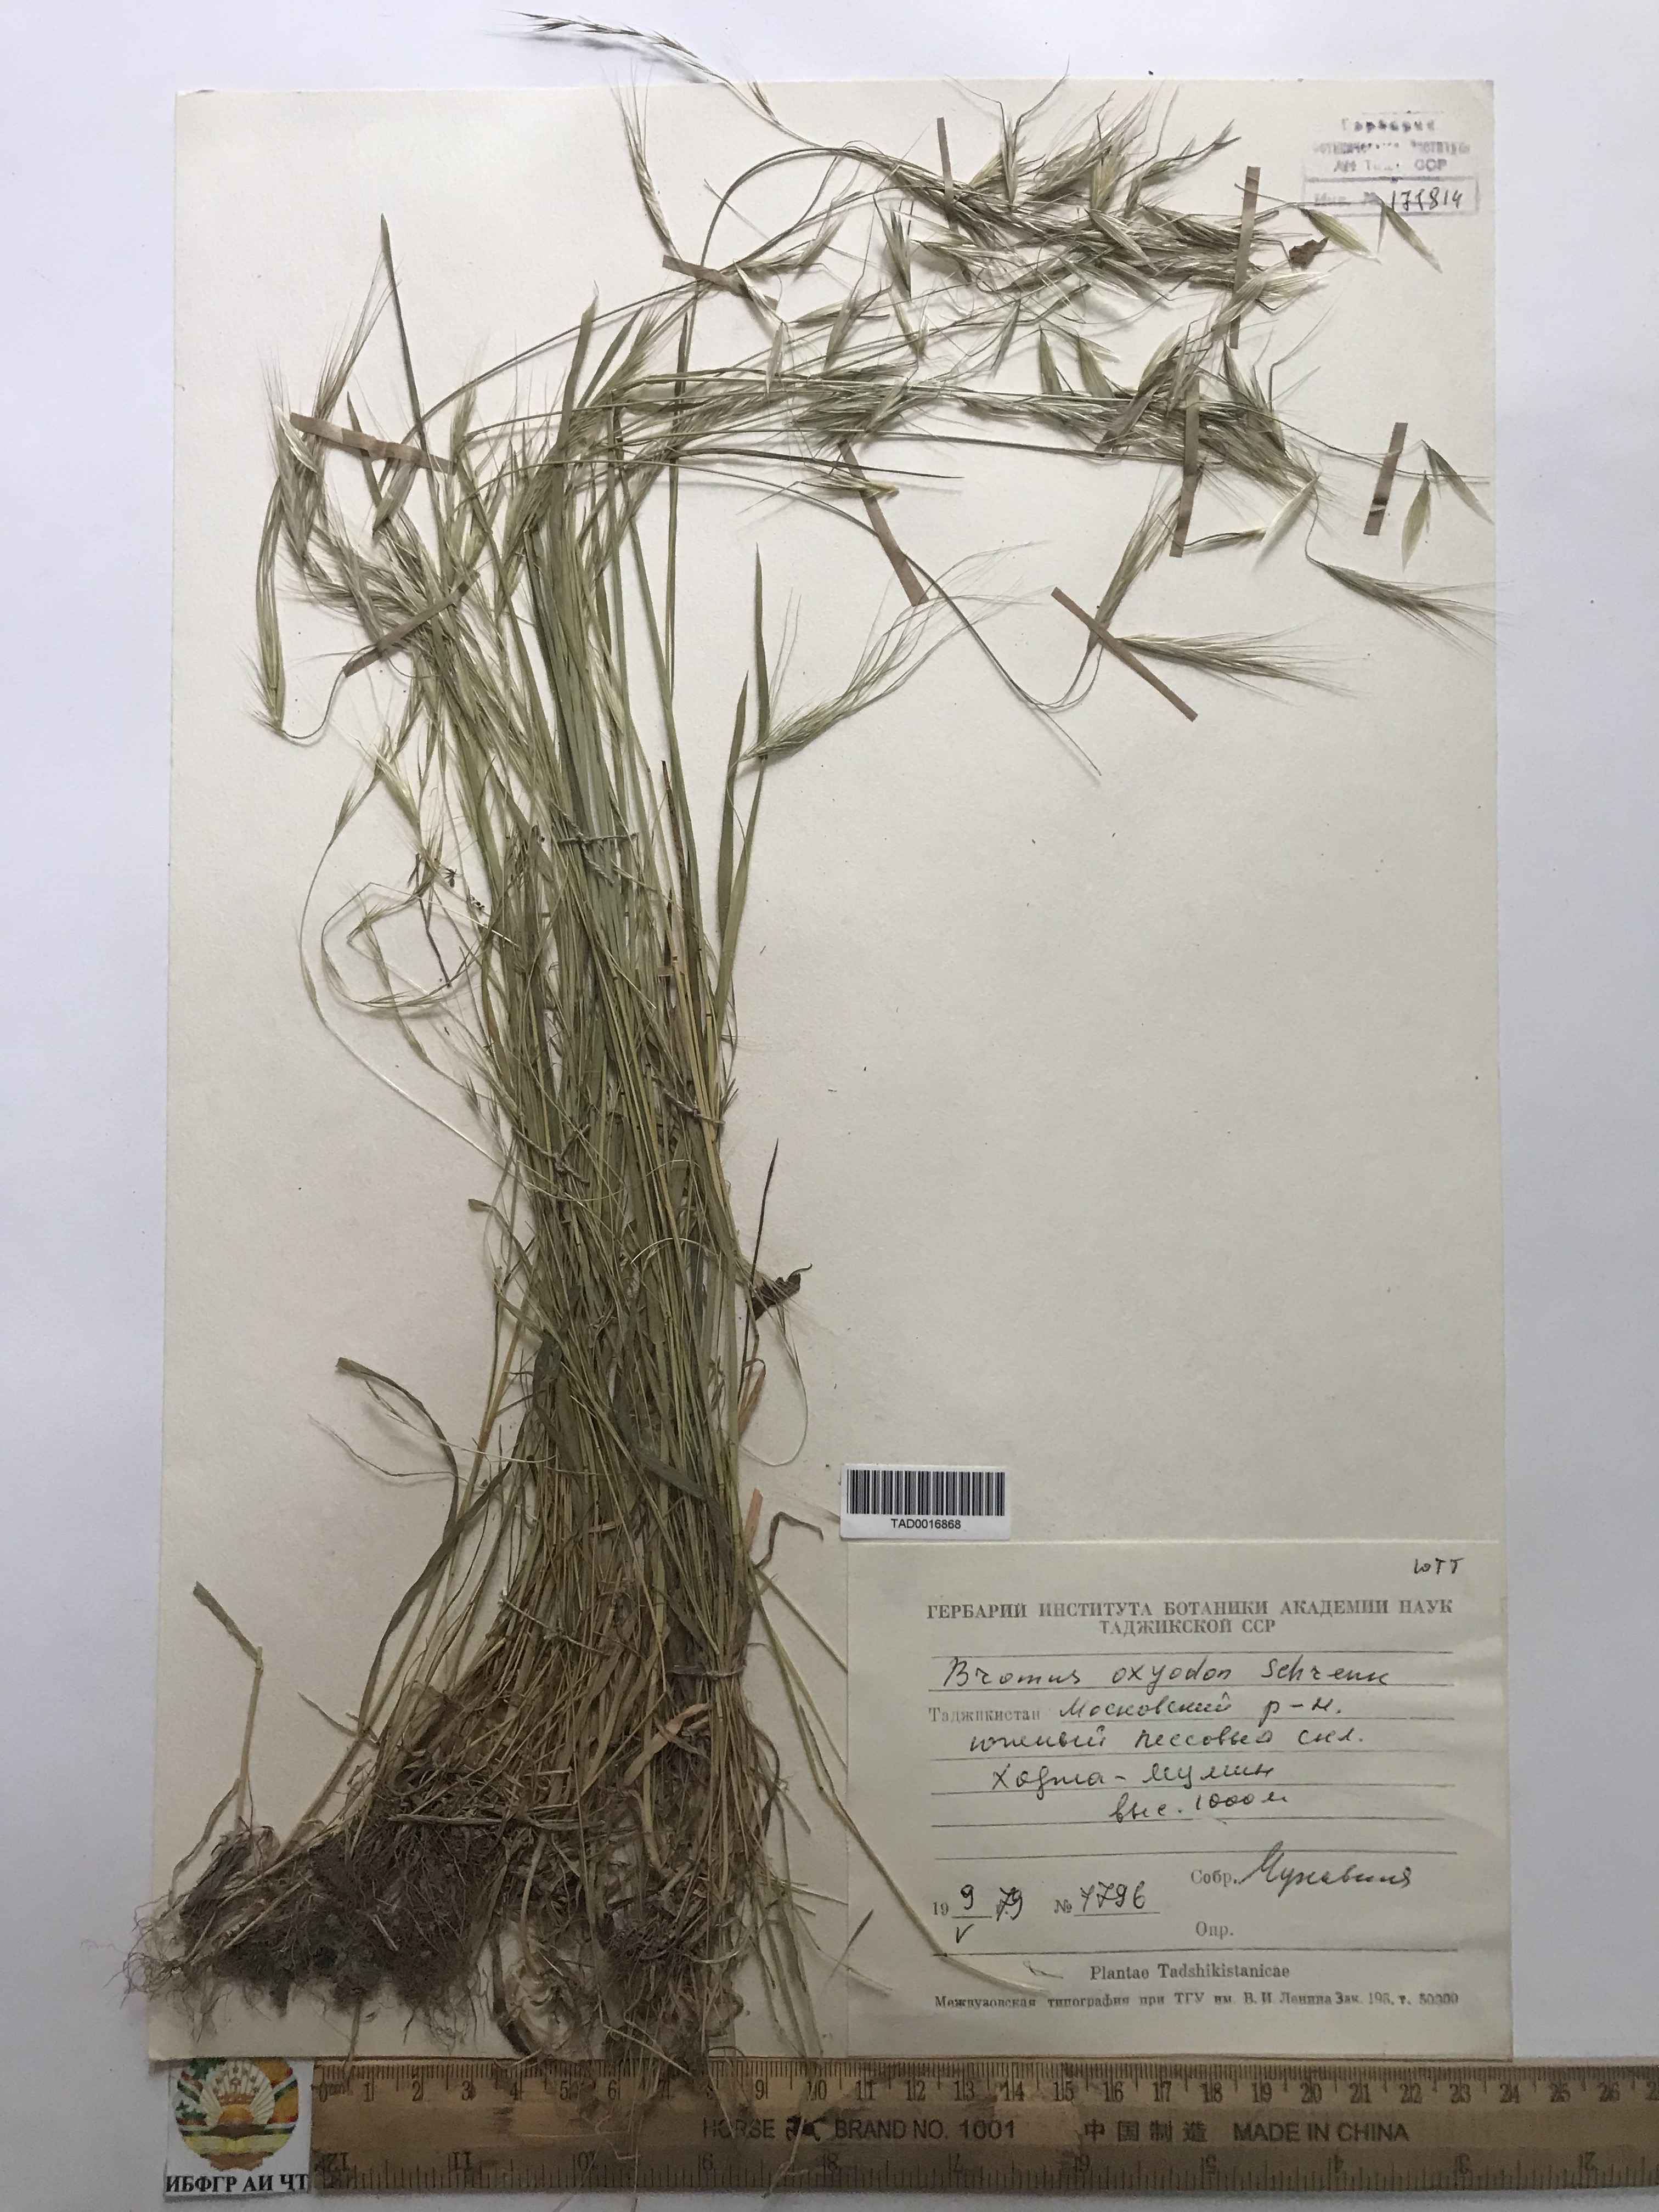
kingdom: Plantae
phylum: Tracheophyta
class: Liliopsida
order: Poales
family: Poaceae
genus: Bromus
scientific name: Bromus oxyodon
